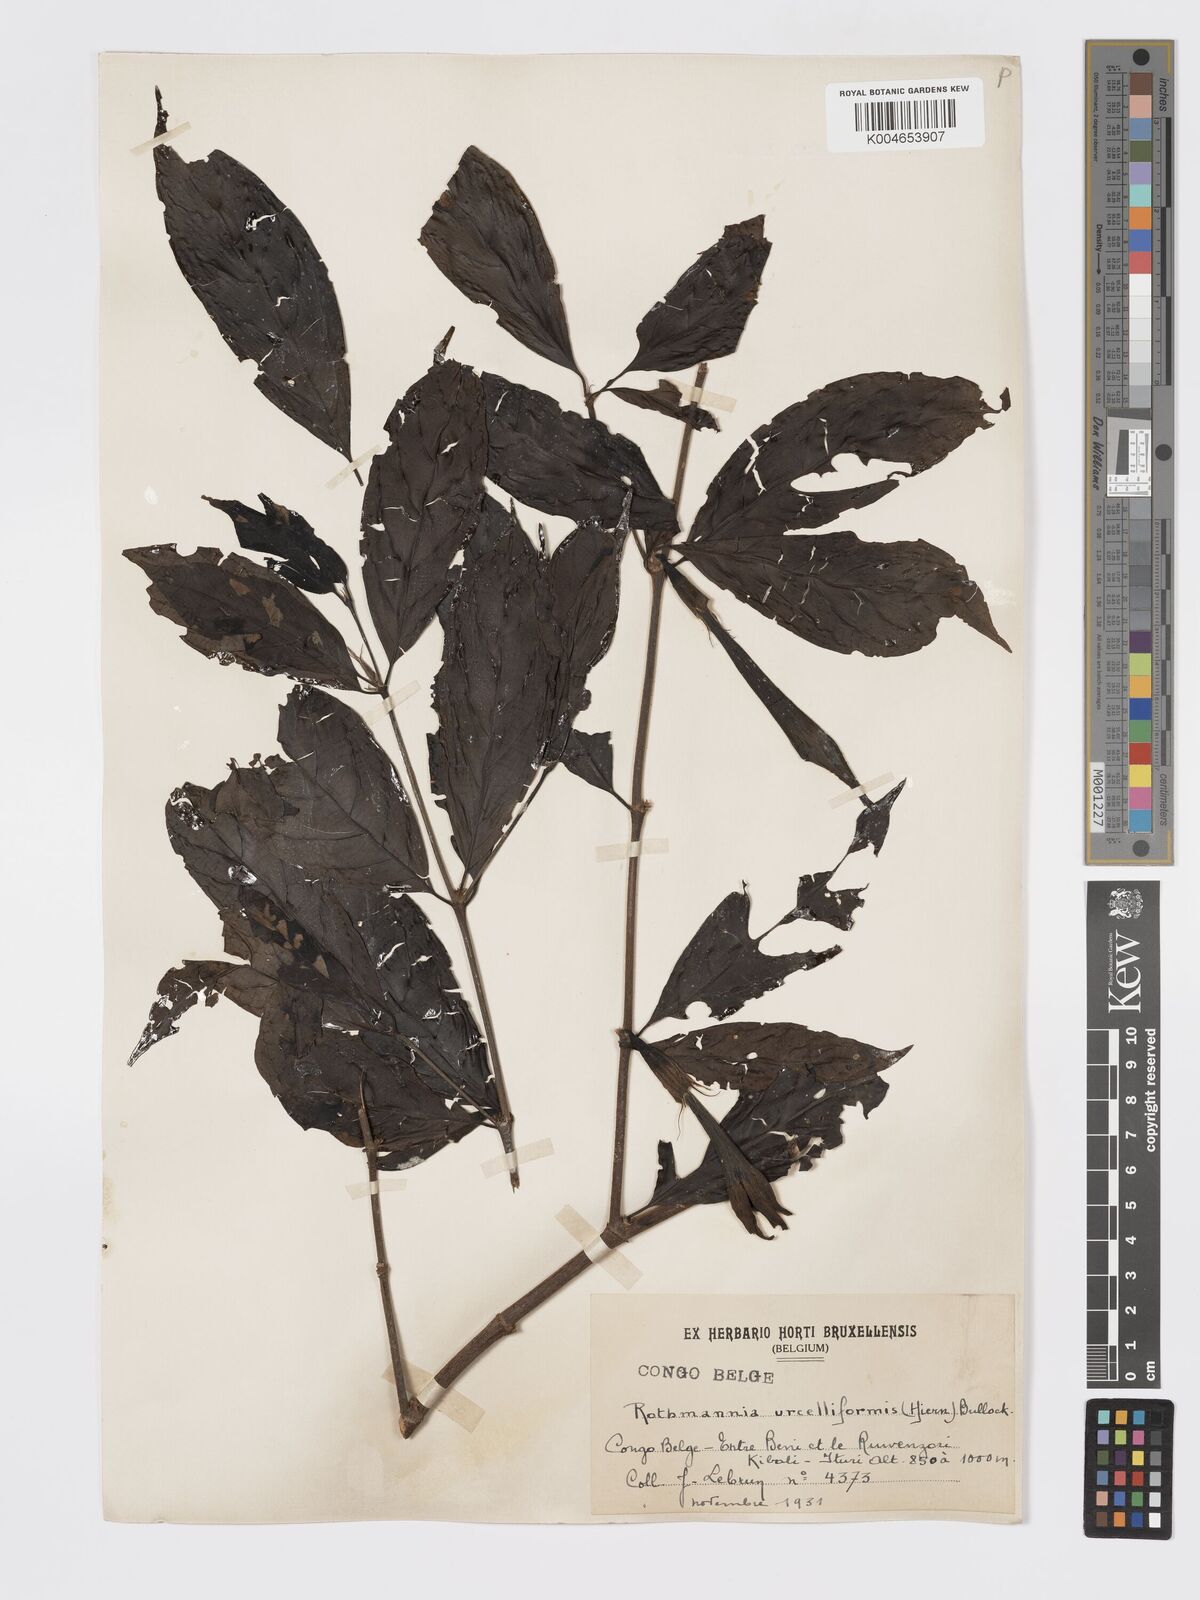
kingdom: Plantae
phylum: Tracheophyta
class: Magnoliopsida
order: Gentianales
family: Rubiaceae
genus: Rothmannia
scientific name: Rothmannia urcelliformis
